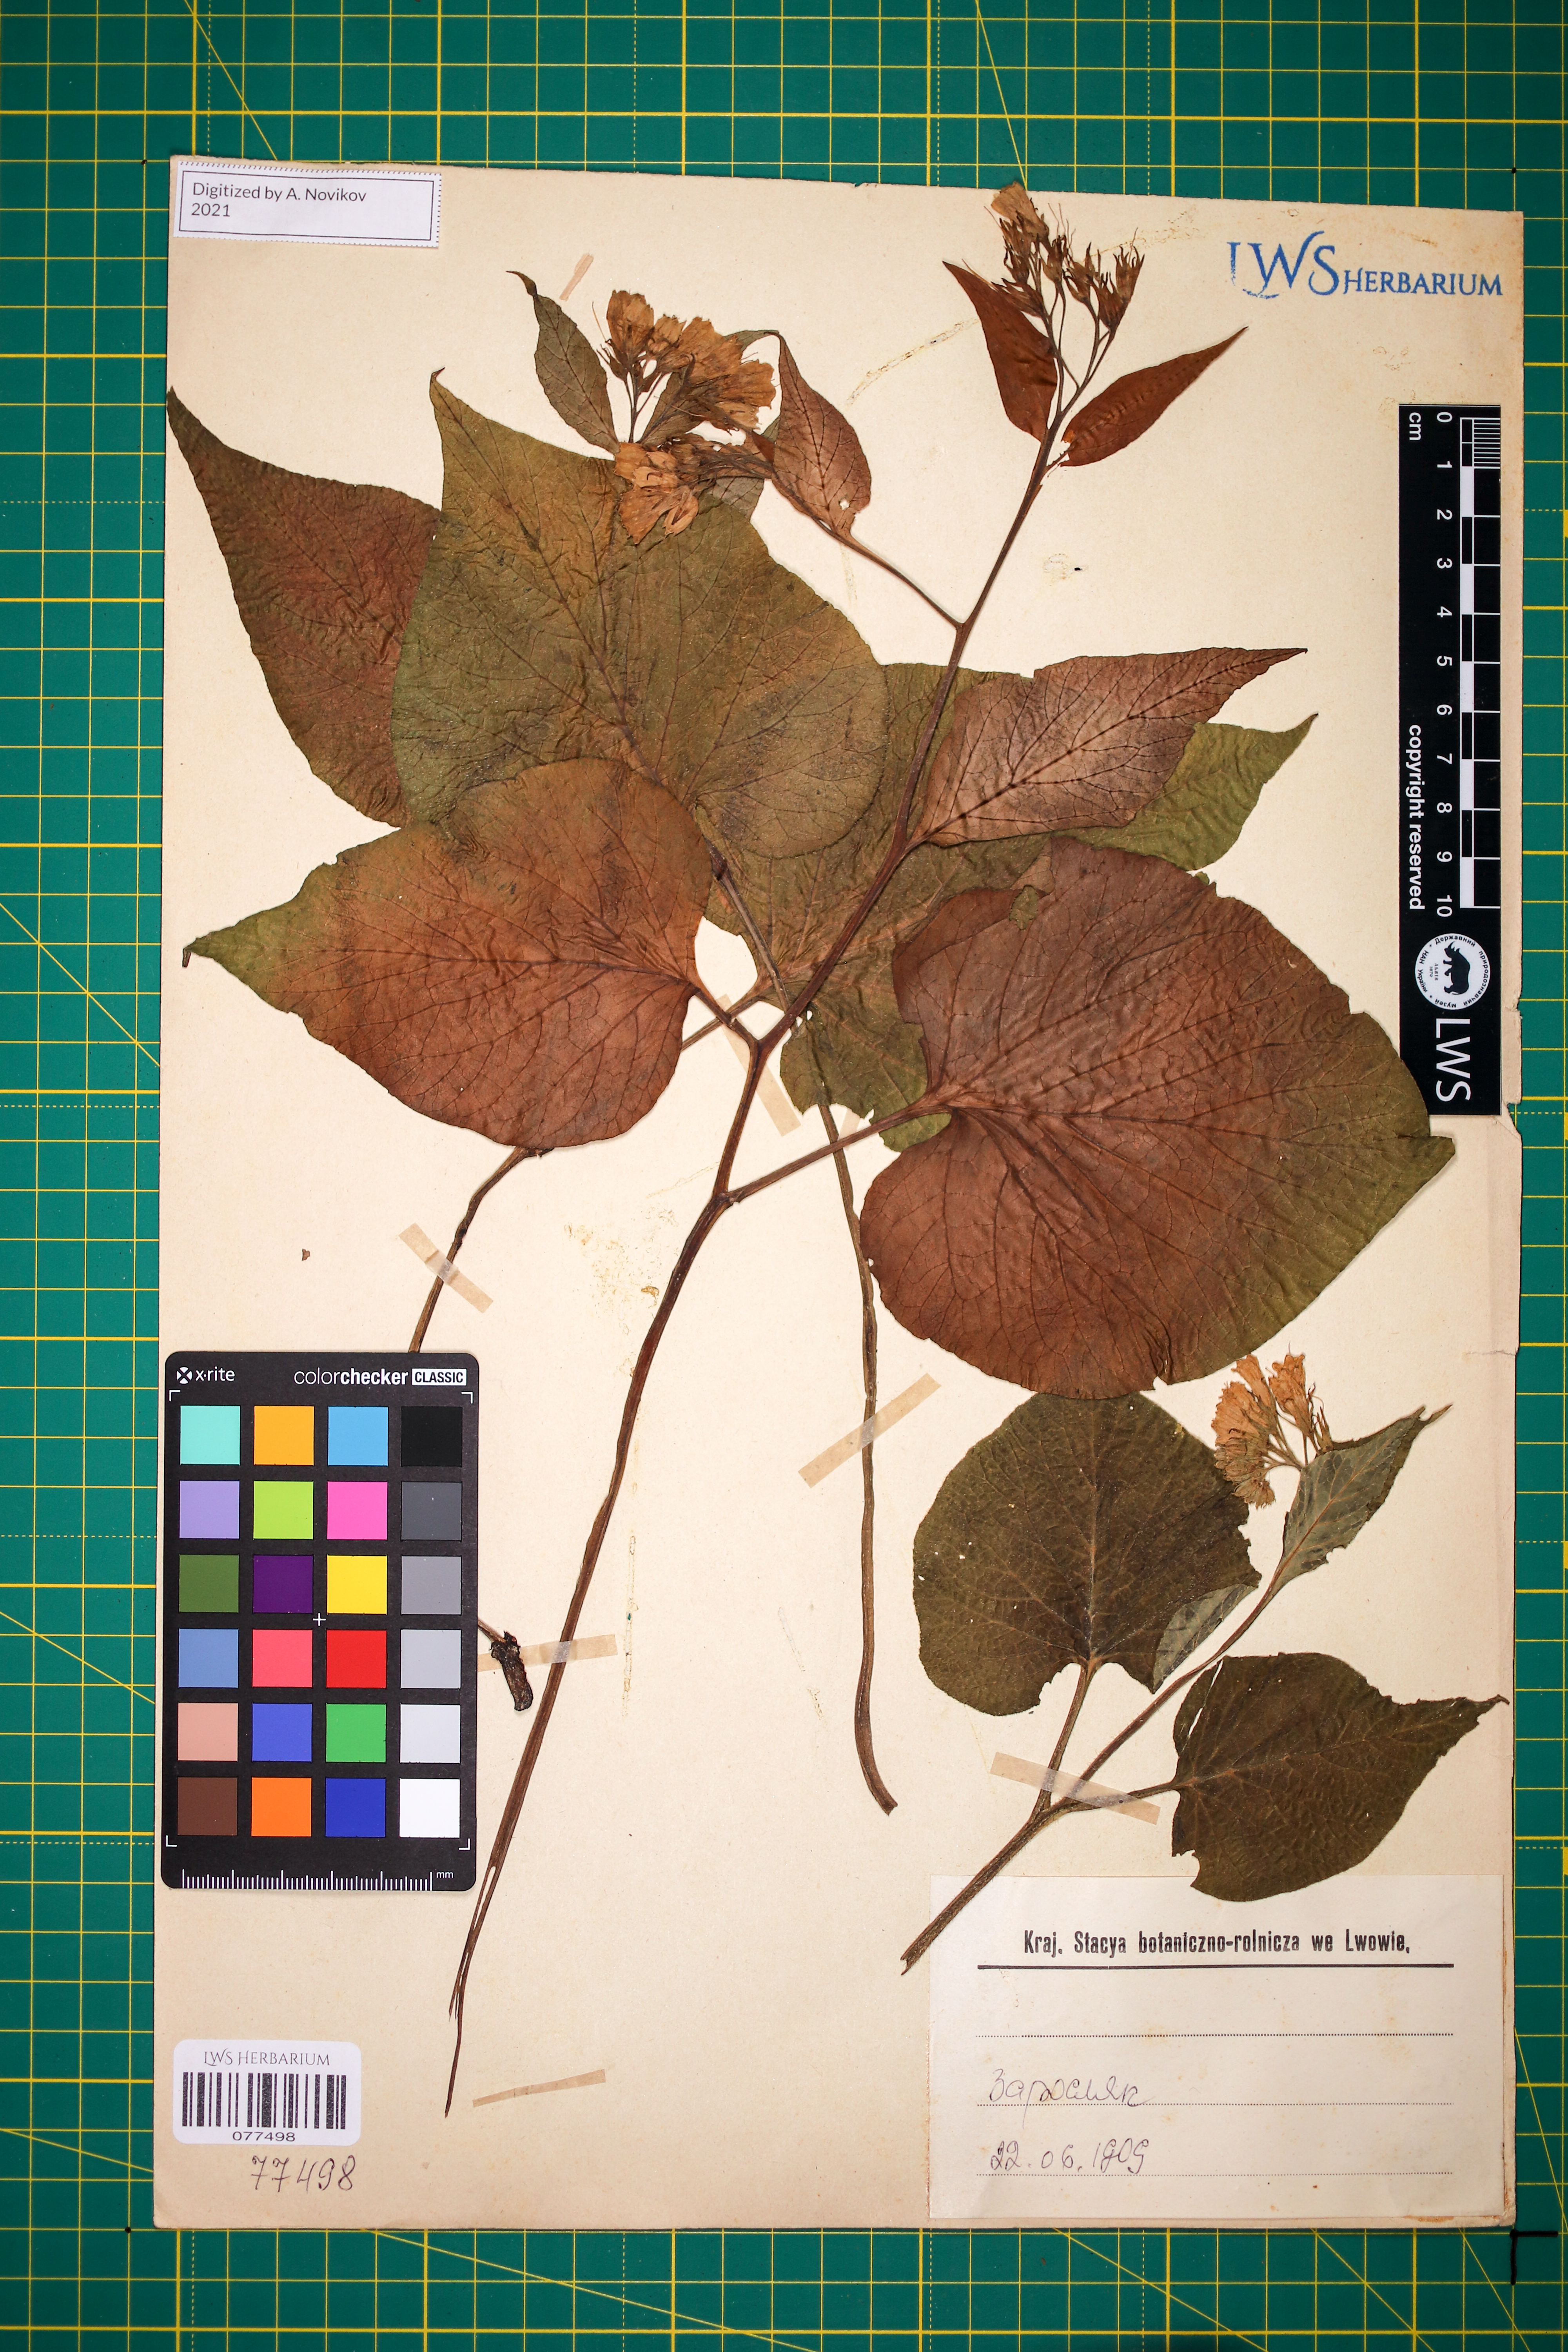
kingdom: Plantae
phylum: Tracheophyta
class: Magnoliopsida
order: Boraginales
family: Boraginaceae
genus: Symphytum
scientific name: Symphytum cordatum
